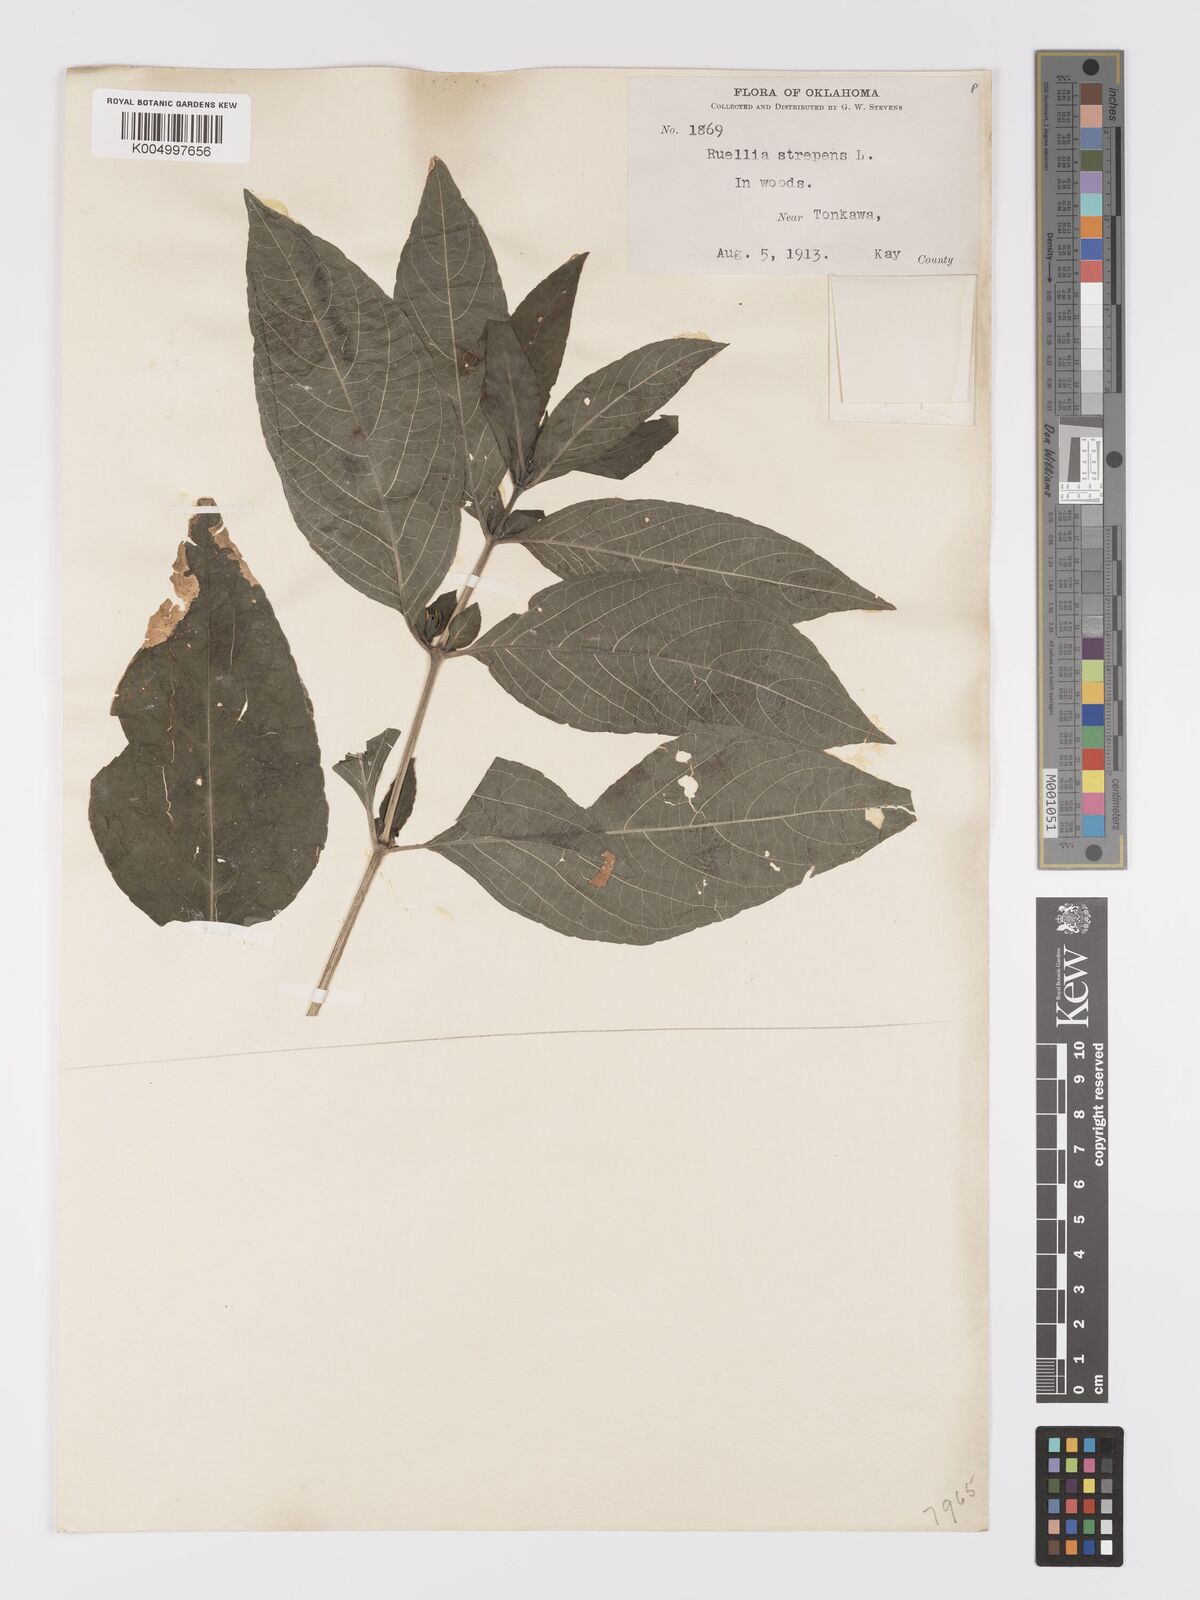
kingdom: Plantae
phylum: Tracheophyta
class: Magnoliopsida
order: Lamiales
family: Acanthaceae
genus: Ruellia
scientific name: Ruellia strepens
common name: Limestone wild petunia
